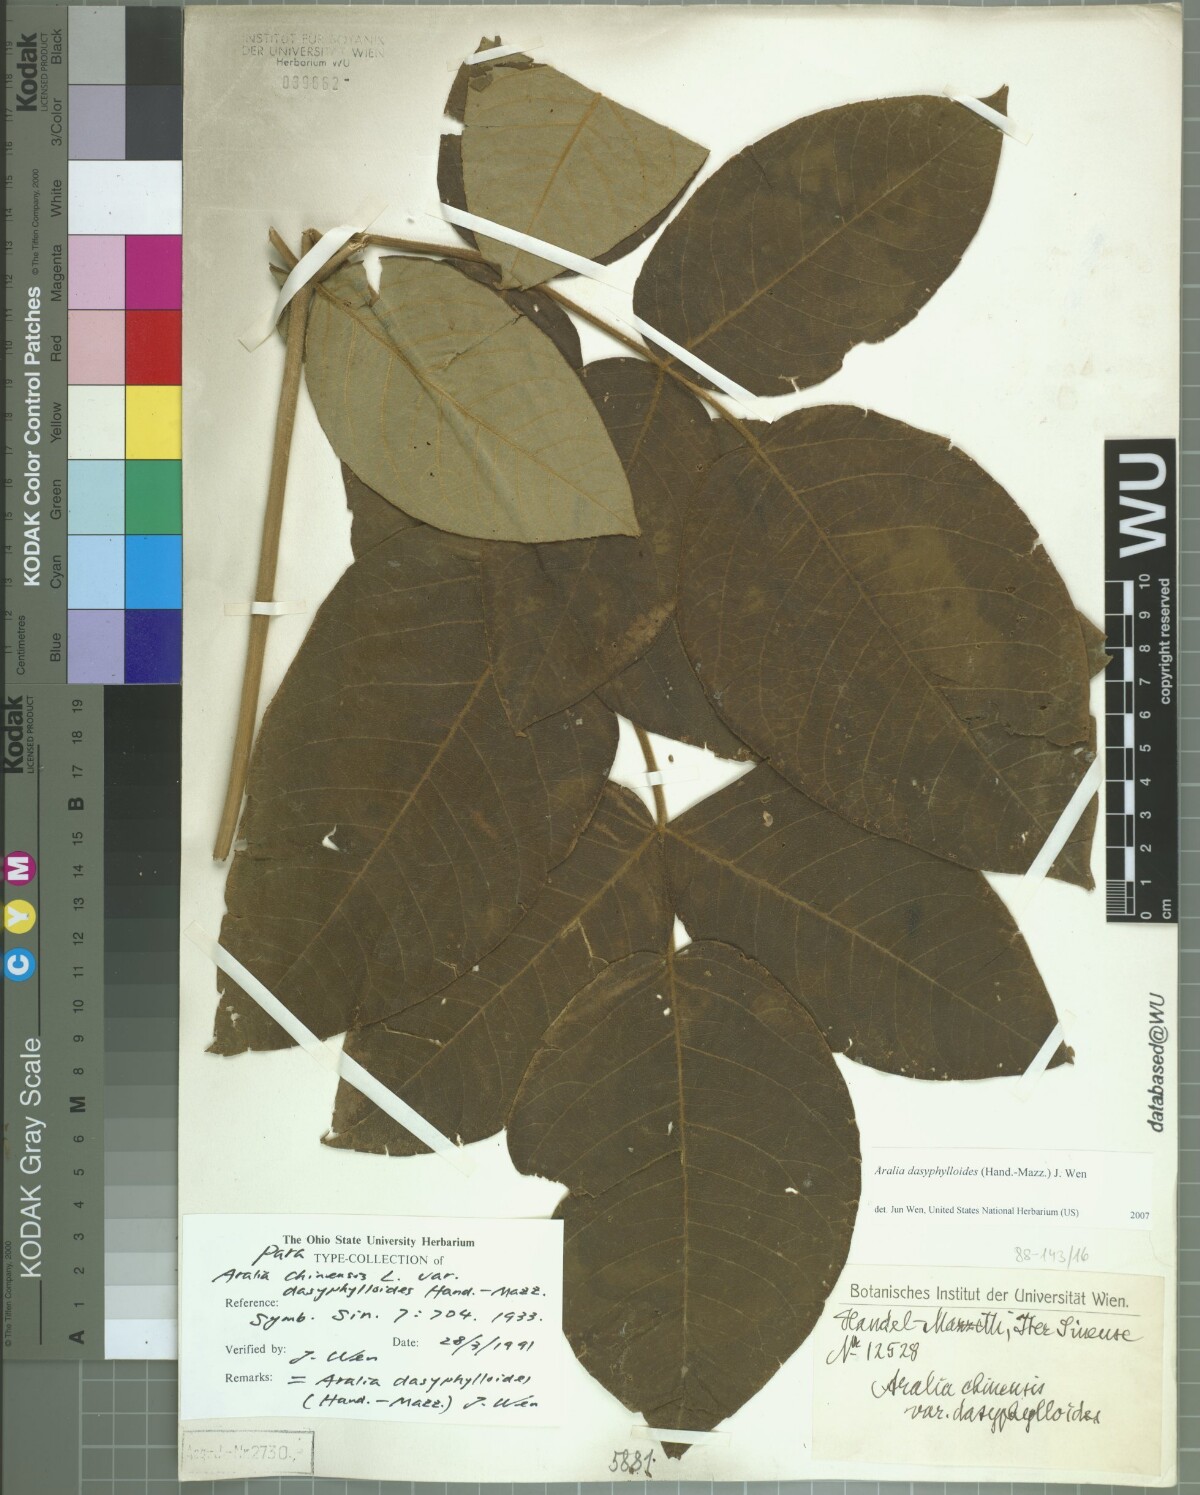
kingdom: Plantae
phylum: Tracheophyta
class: Magnoliopsida
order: Apiales
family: Araliaceae
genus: Aralia
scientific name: Aralia dasyphylloides
